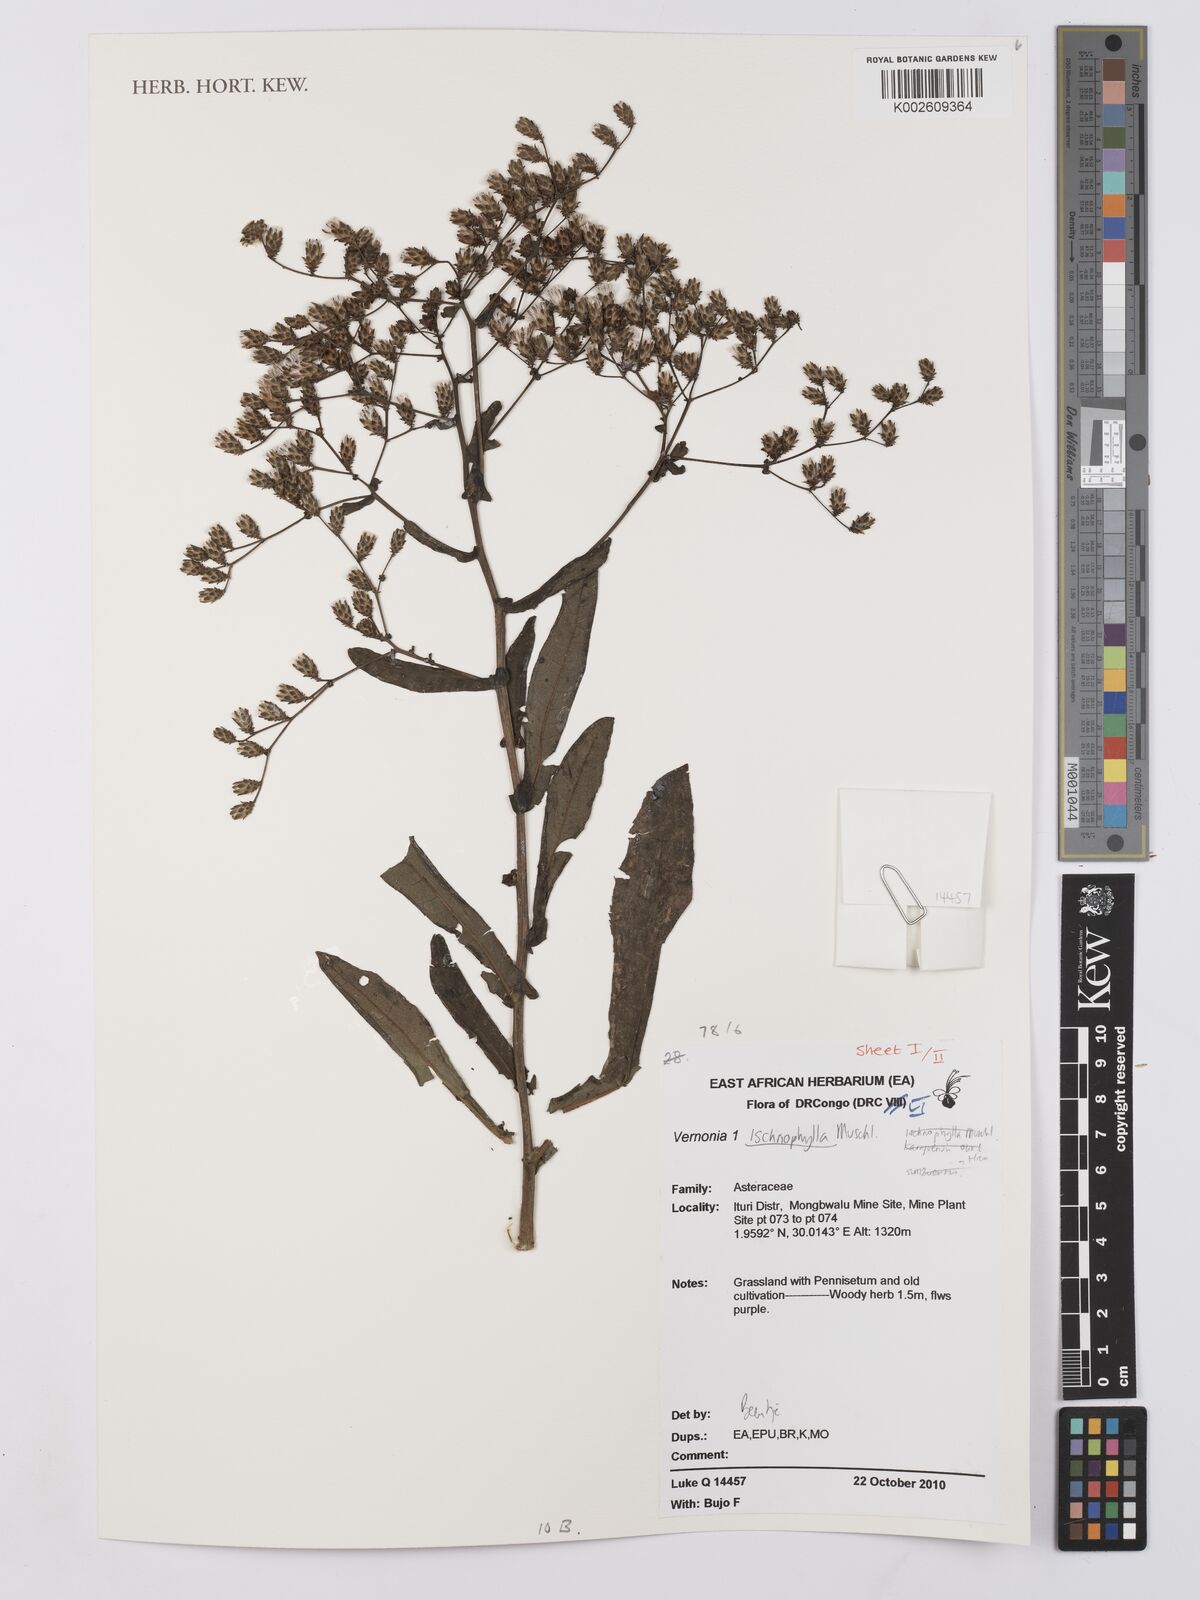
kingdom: Plantae
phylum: Tracheophyta
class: Magnoliopsida
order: Asterales
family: Asteraceae
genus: Vernonia
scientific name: Vernonia ischnophylla
